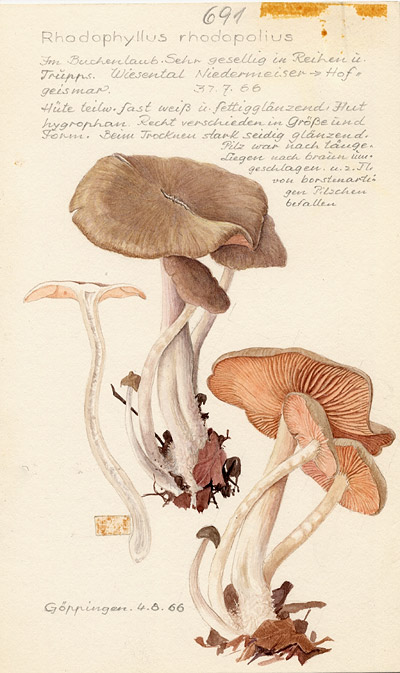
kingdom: Fungi
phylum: Basidiomycota
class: Agaricomycetes
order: Agaricales
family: Entolomataceae
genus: Entoloma
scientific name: Entoloma rhodopolium
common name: Wood pinkgill
